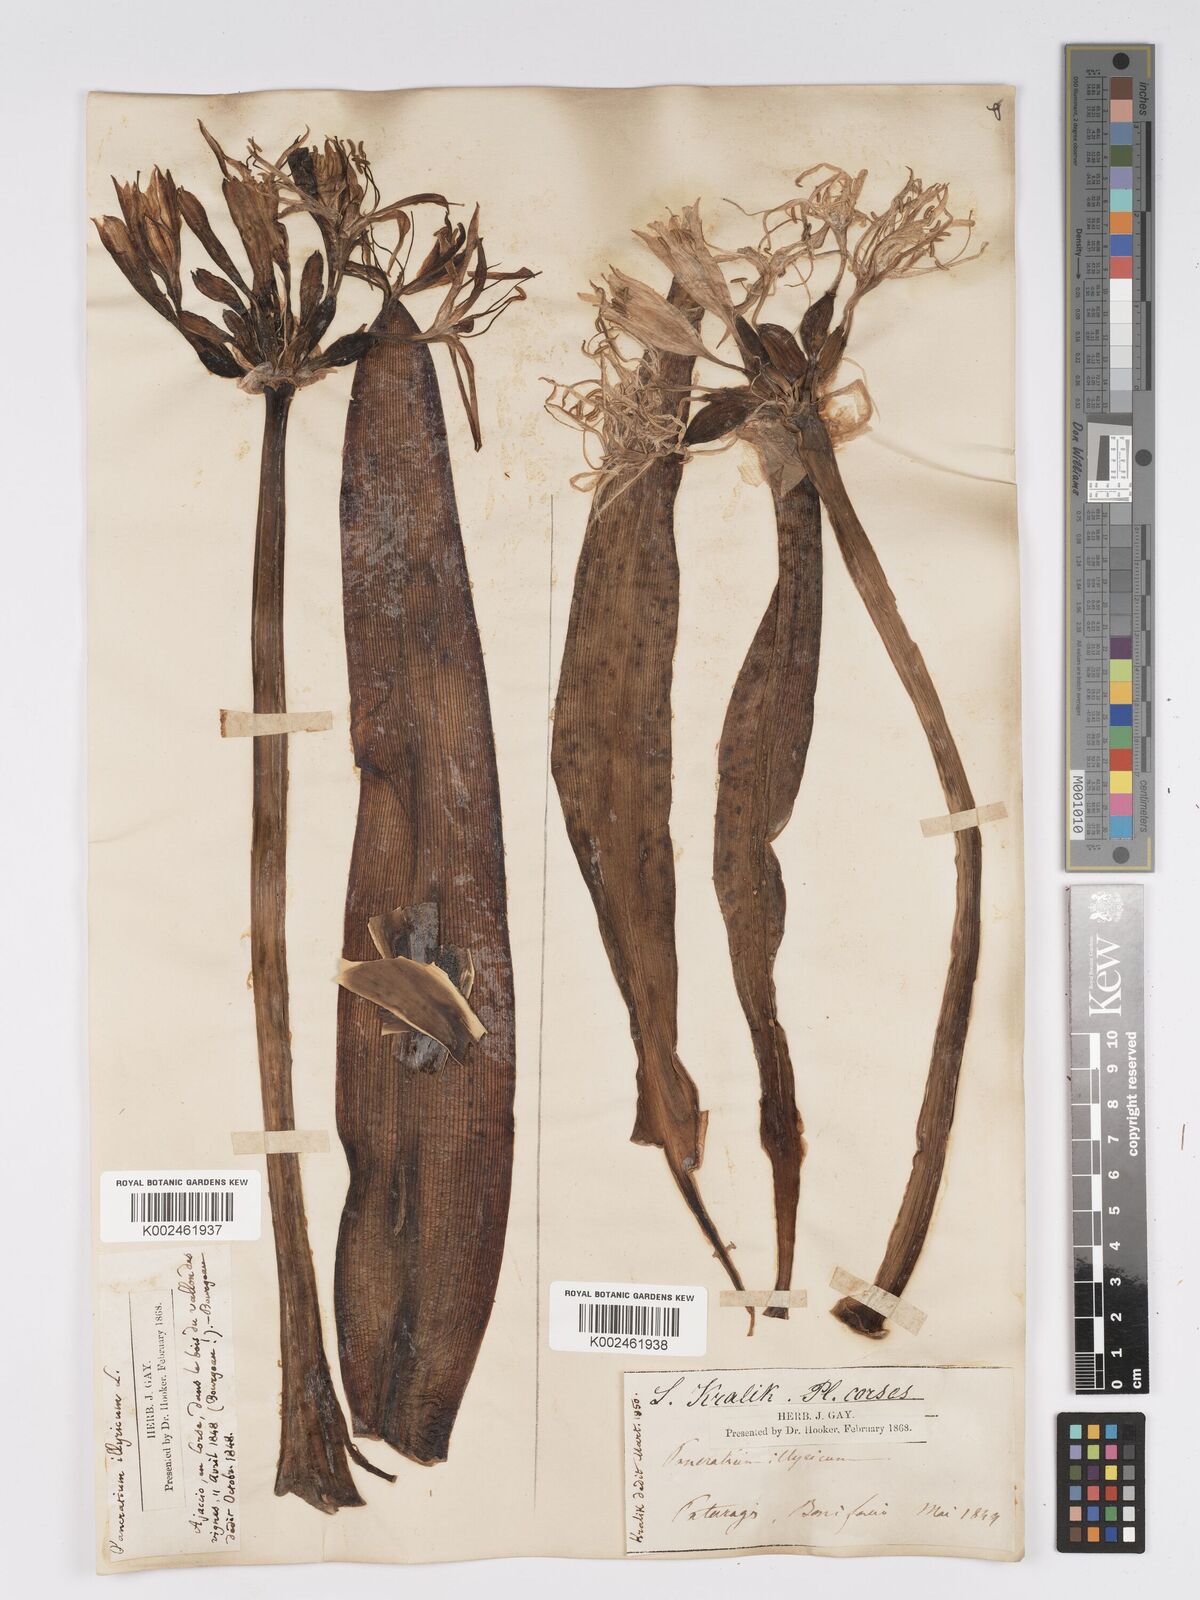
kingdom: Plantae
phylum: Tracheophyta
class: Liliopsida
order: Asparagales
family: Amaryllidaceae
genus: Pancratium
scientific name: Pancratium illyricum
